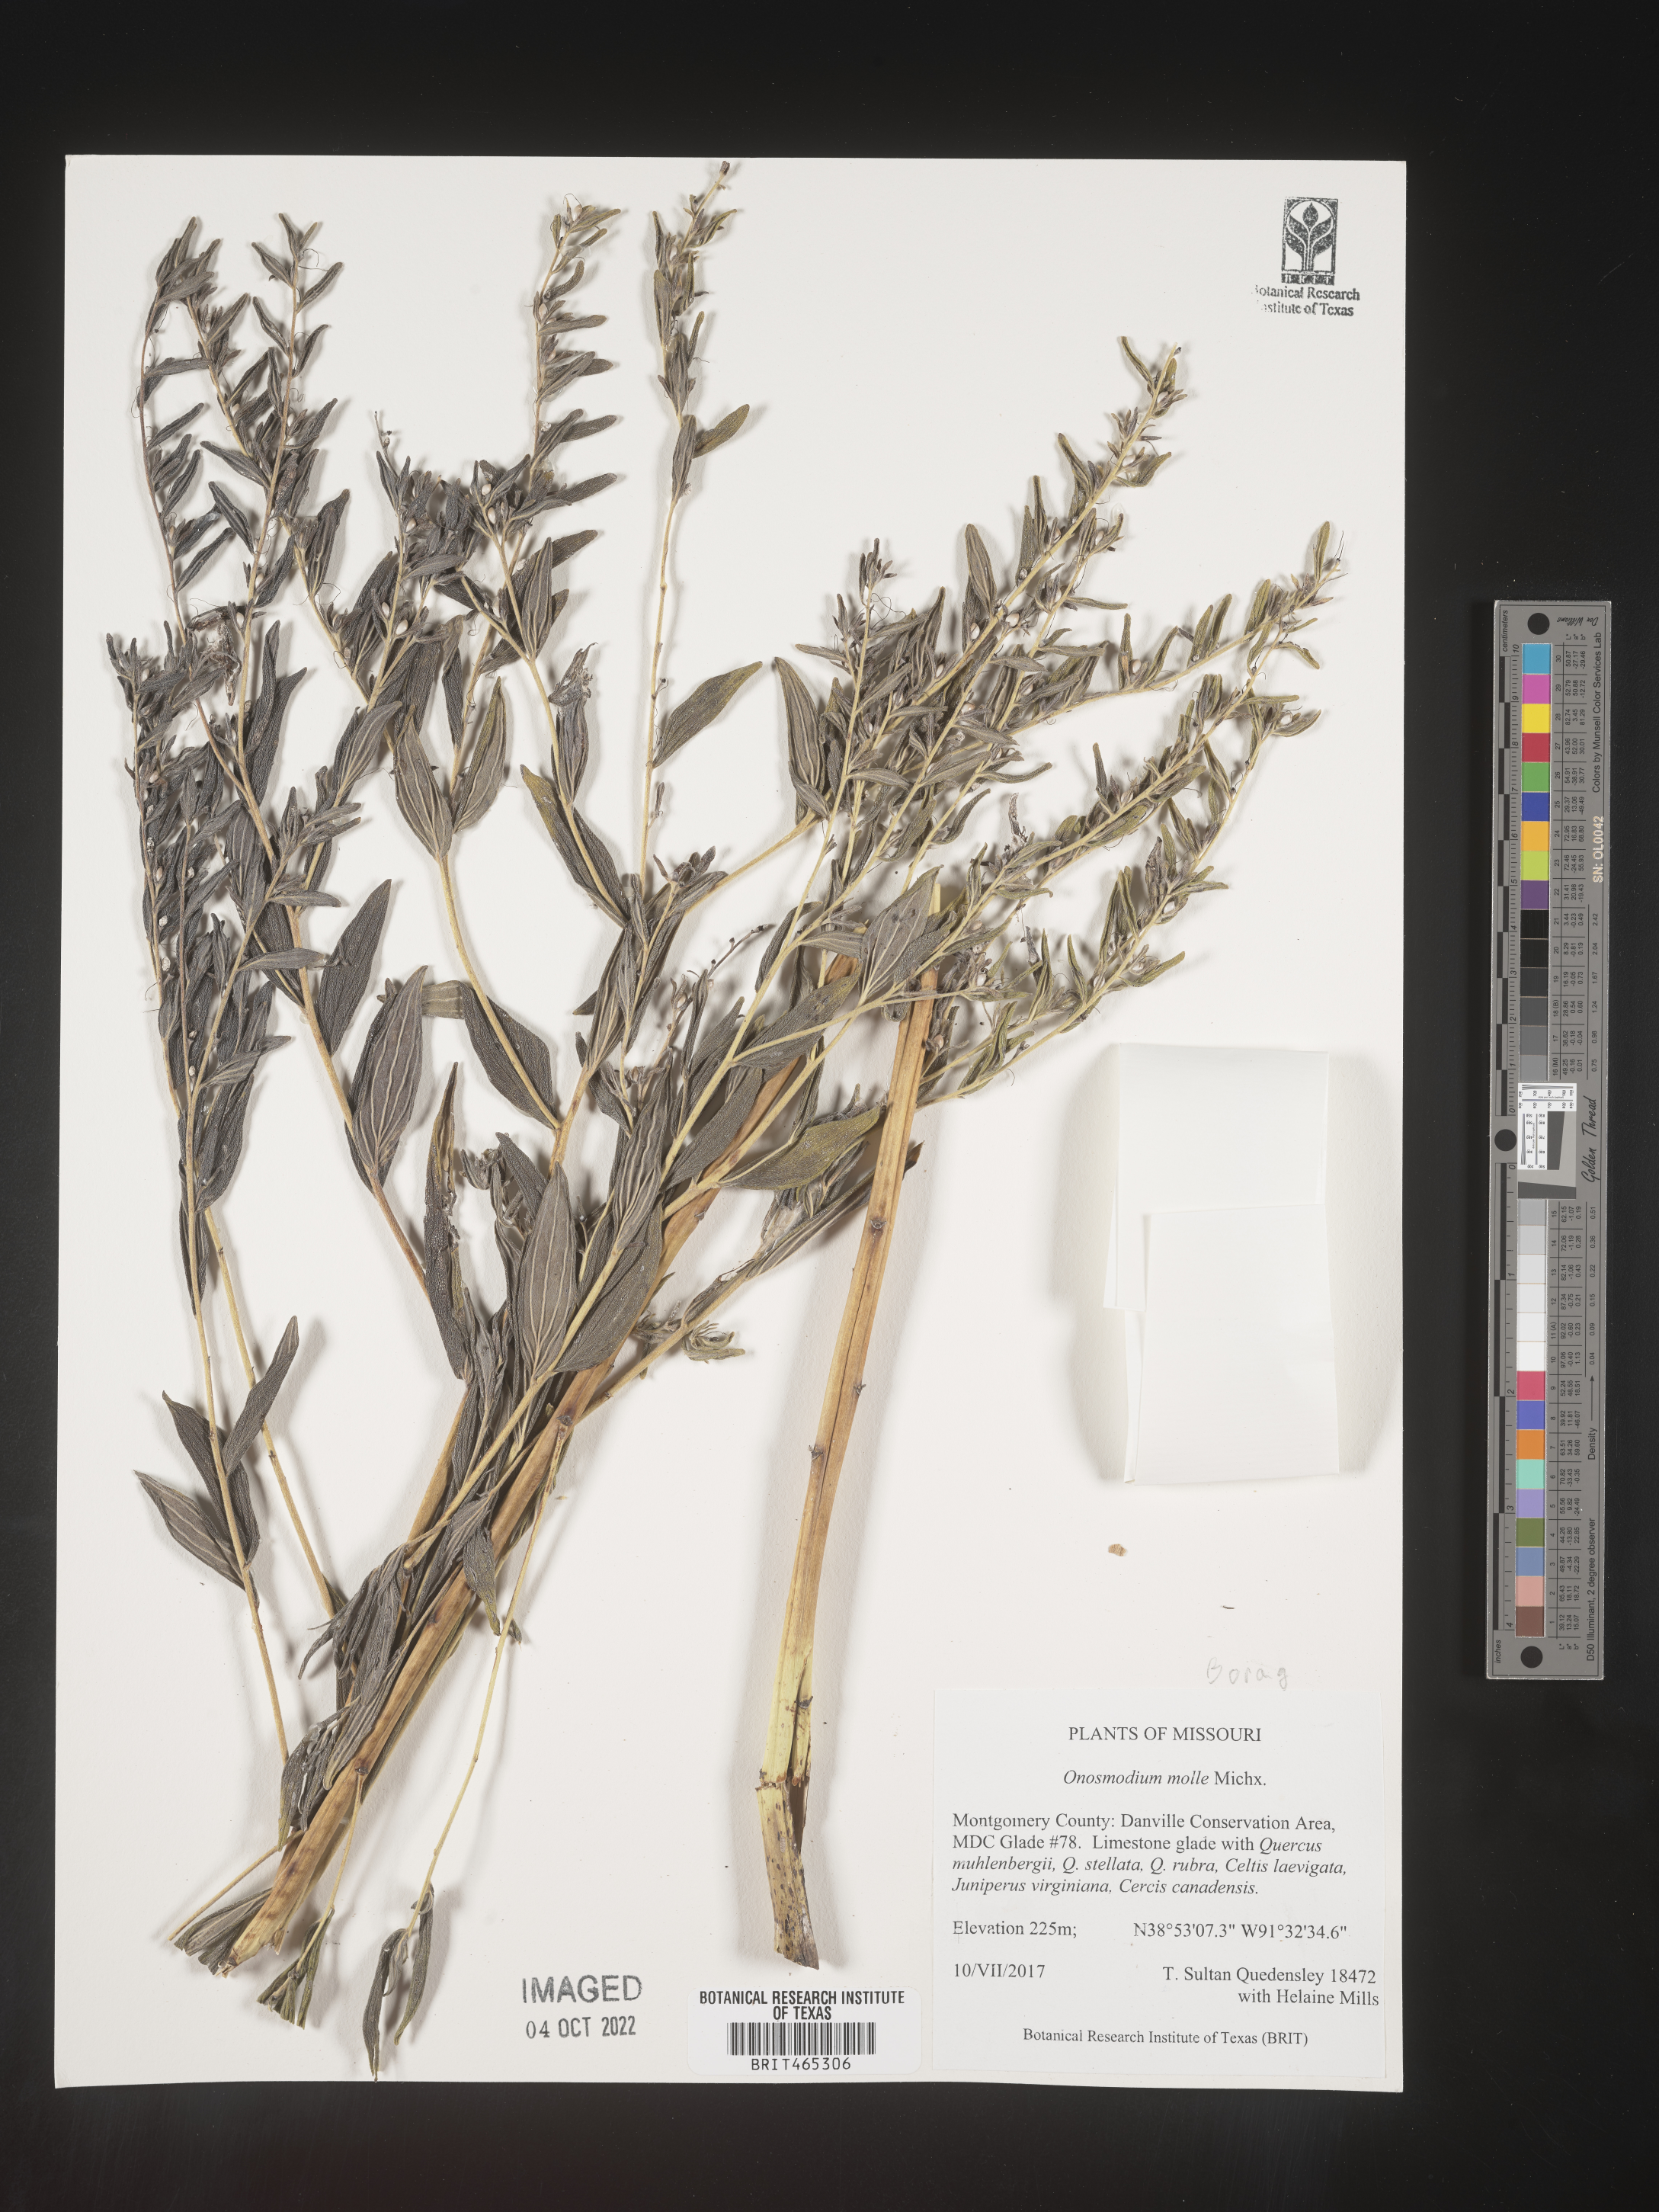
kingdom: Plantae
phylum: Tracheophyta
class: Magnoliopsida
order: Boraginales
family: Boraginaceae
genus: Lithospermum
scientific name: Lithospermum molle
